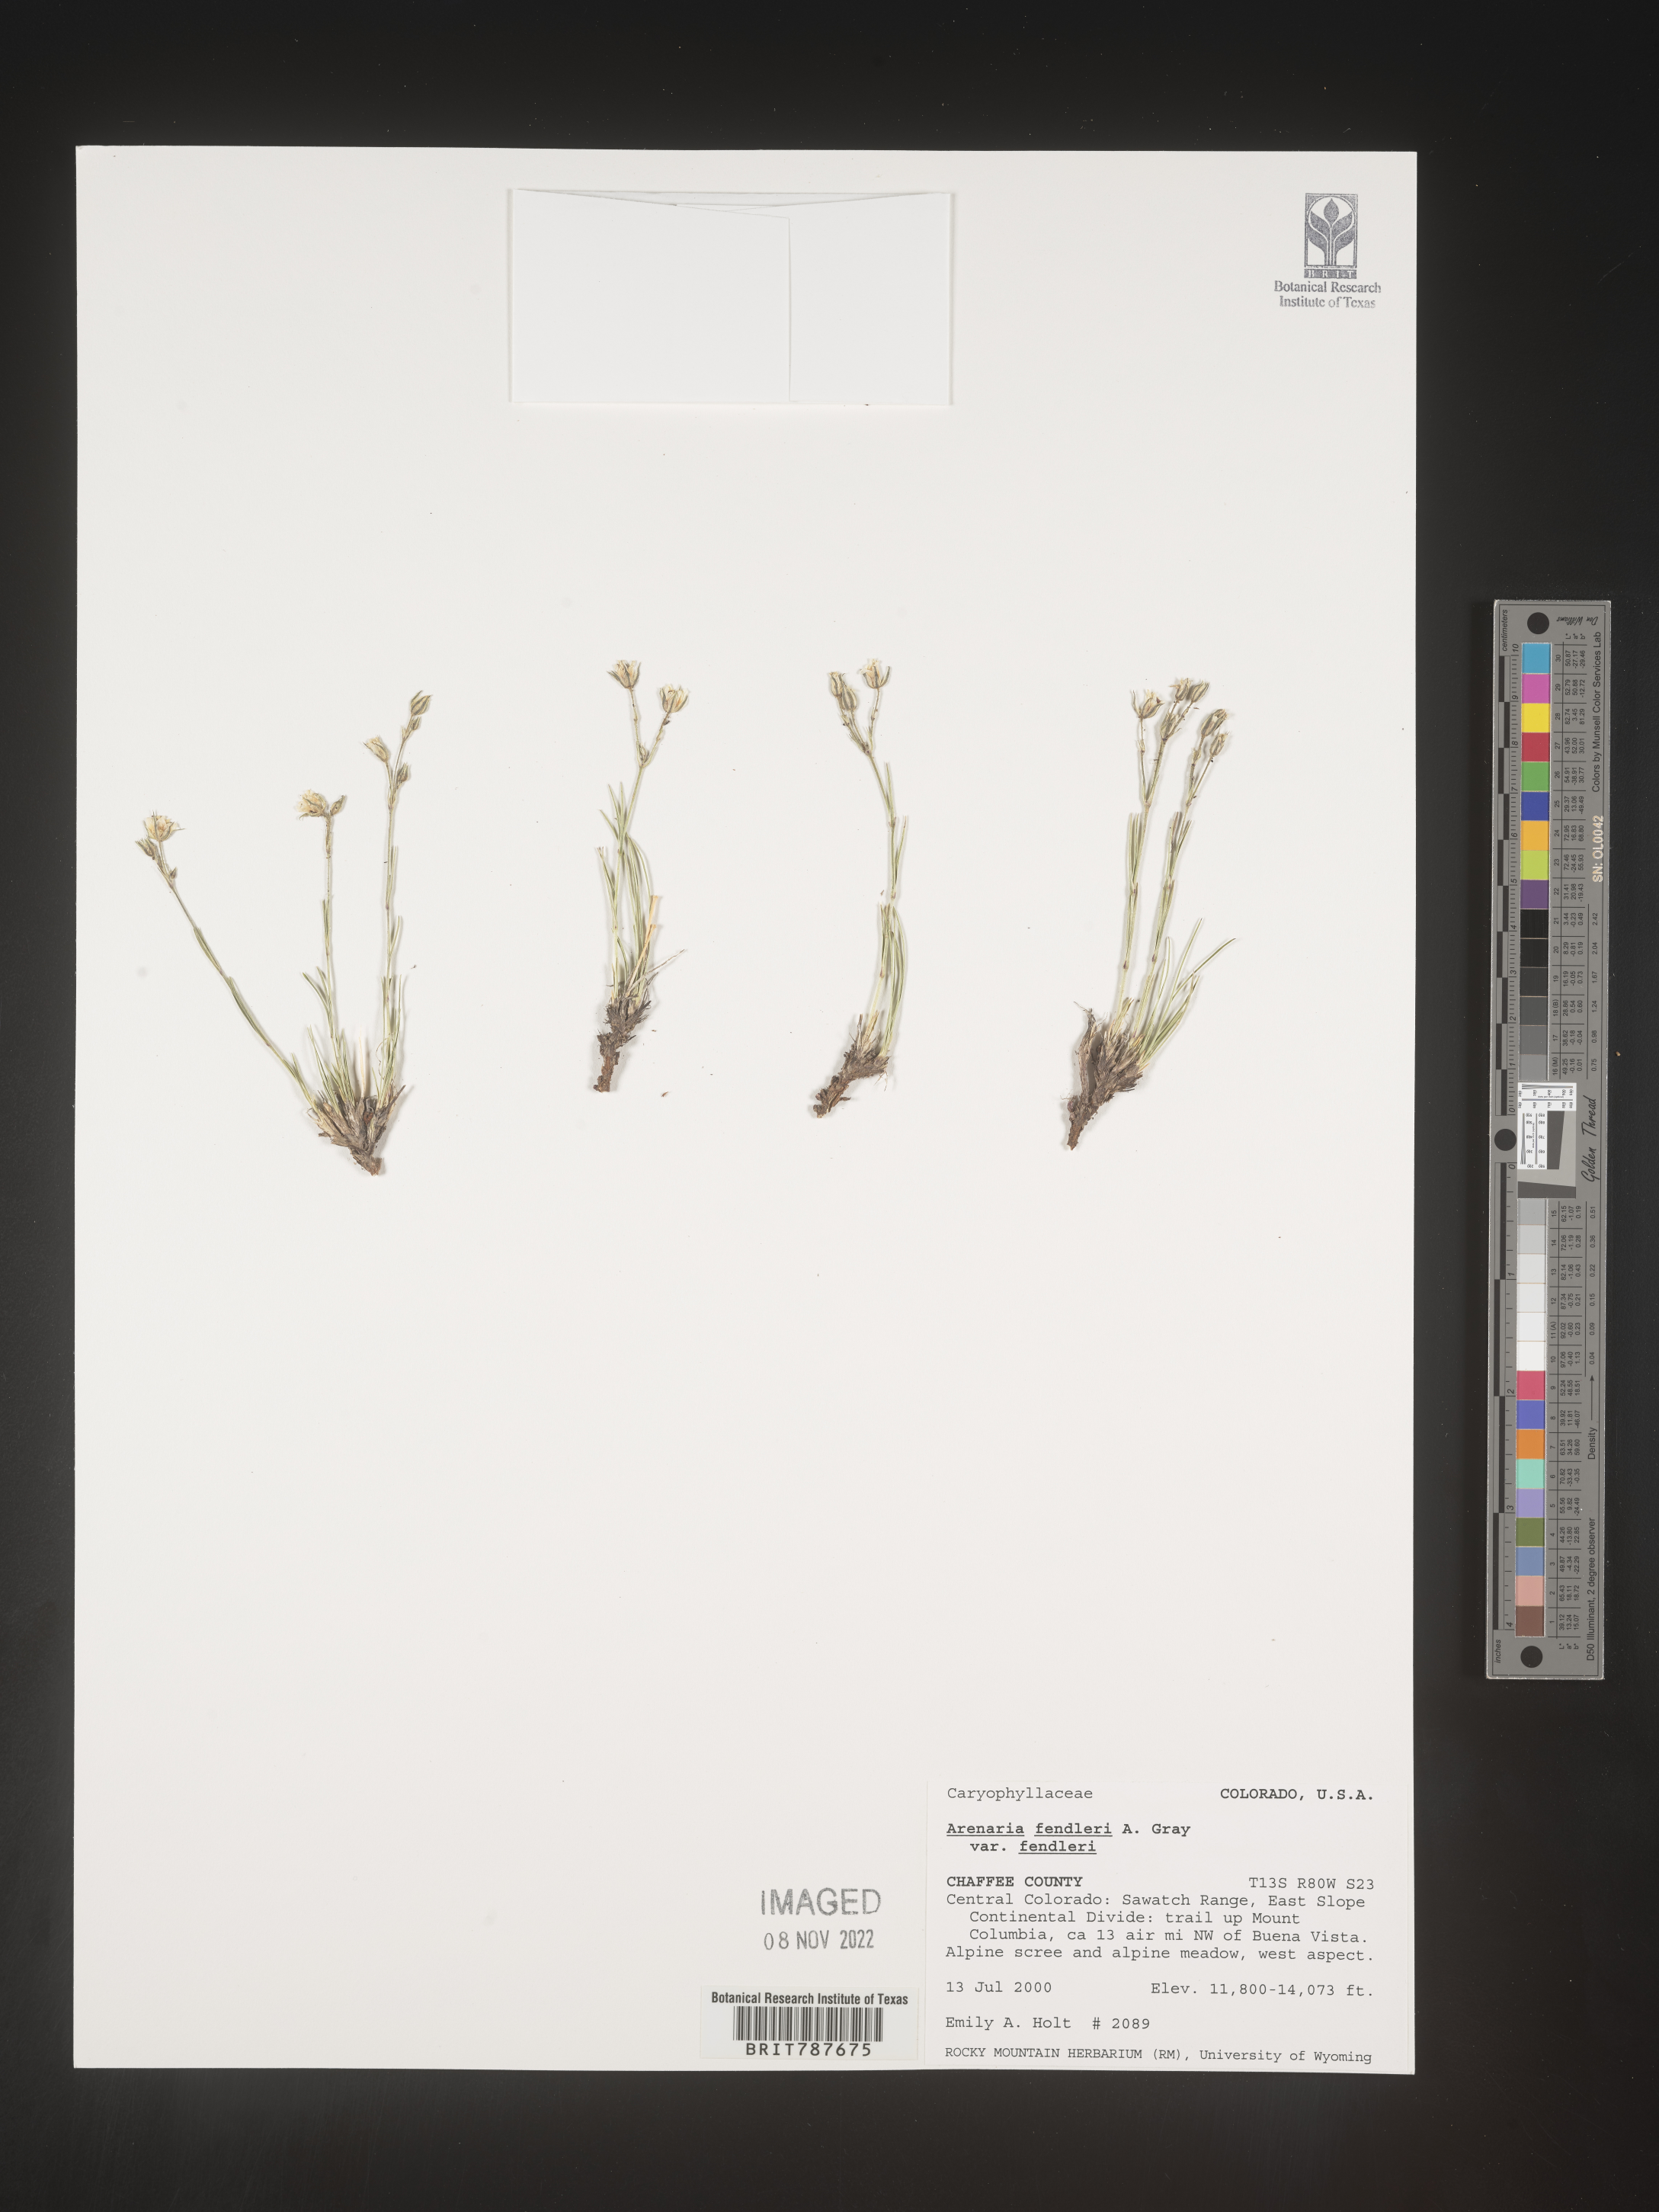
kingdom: Plantae
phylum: Tracheophyta
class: Magnoliopsida
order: Caryophyllales
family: Caryophyllaceae
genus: Arenaria
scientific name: Arenaria
